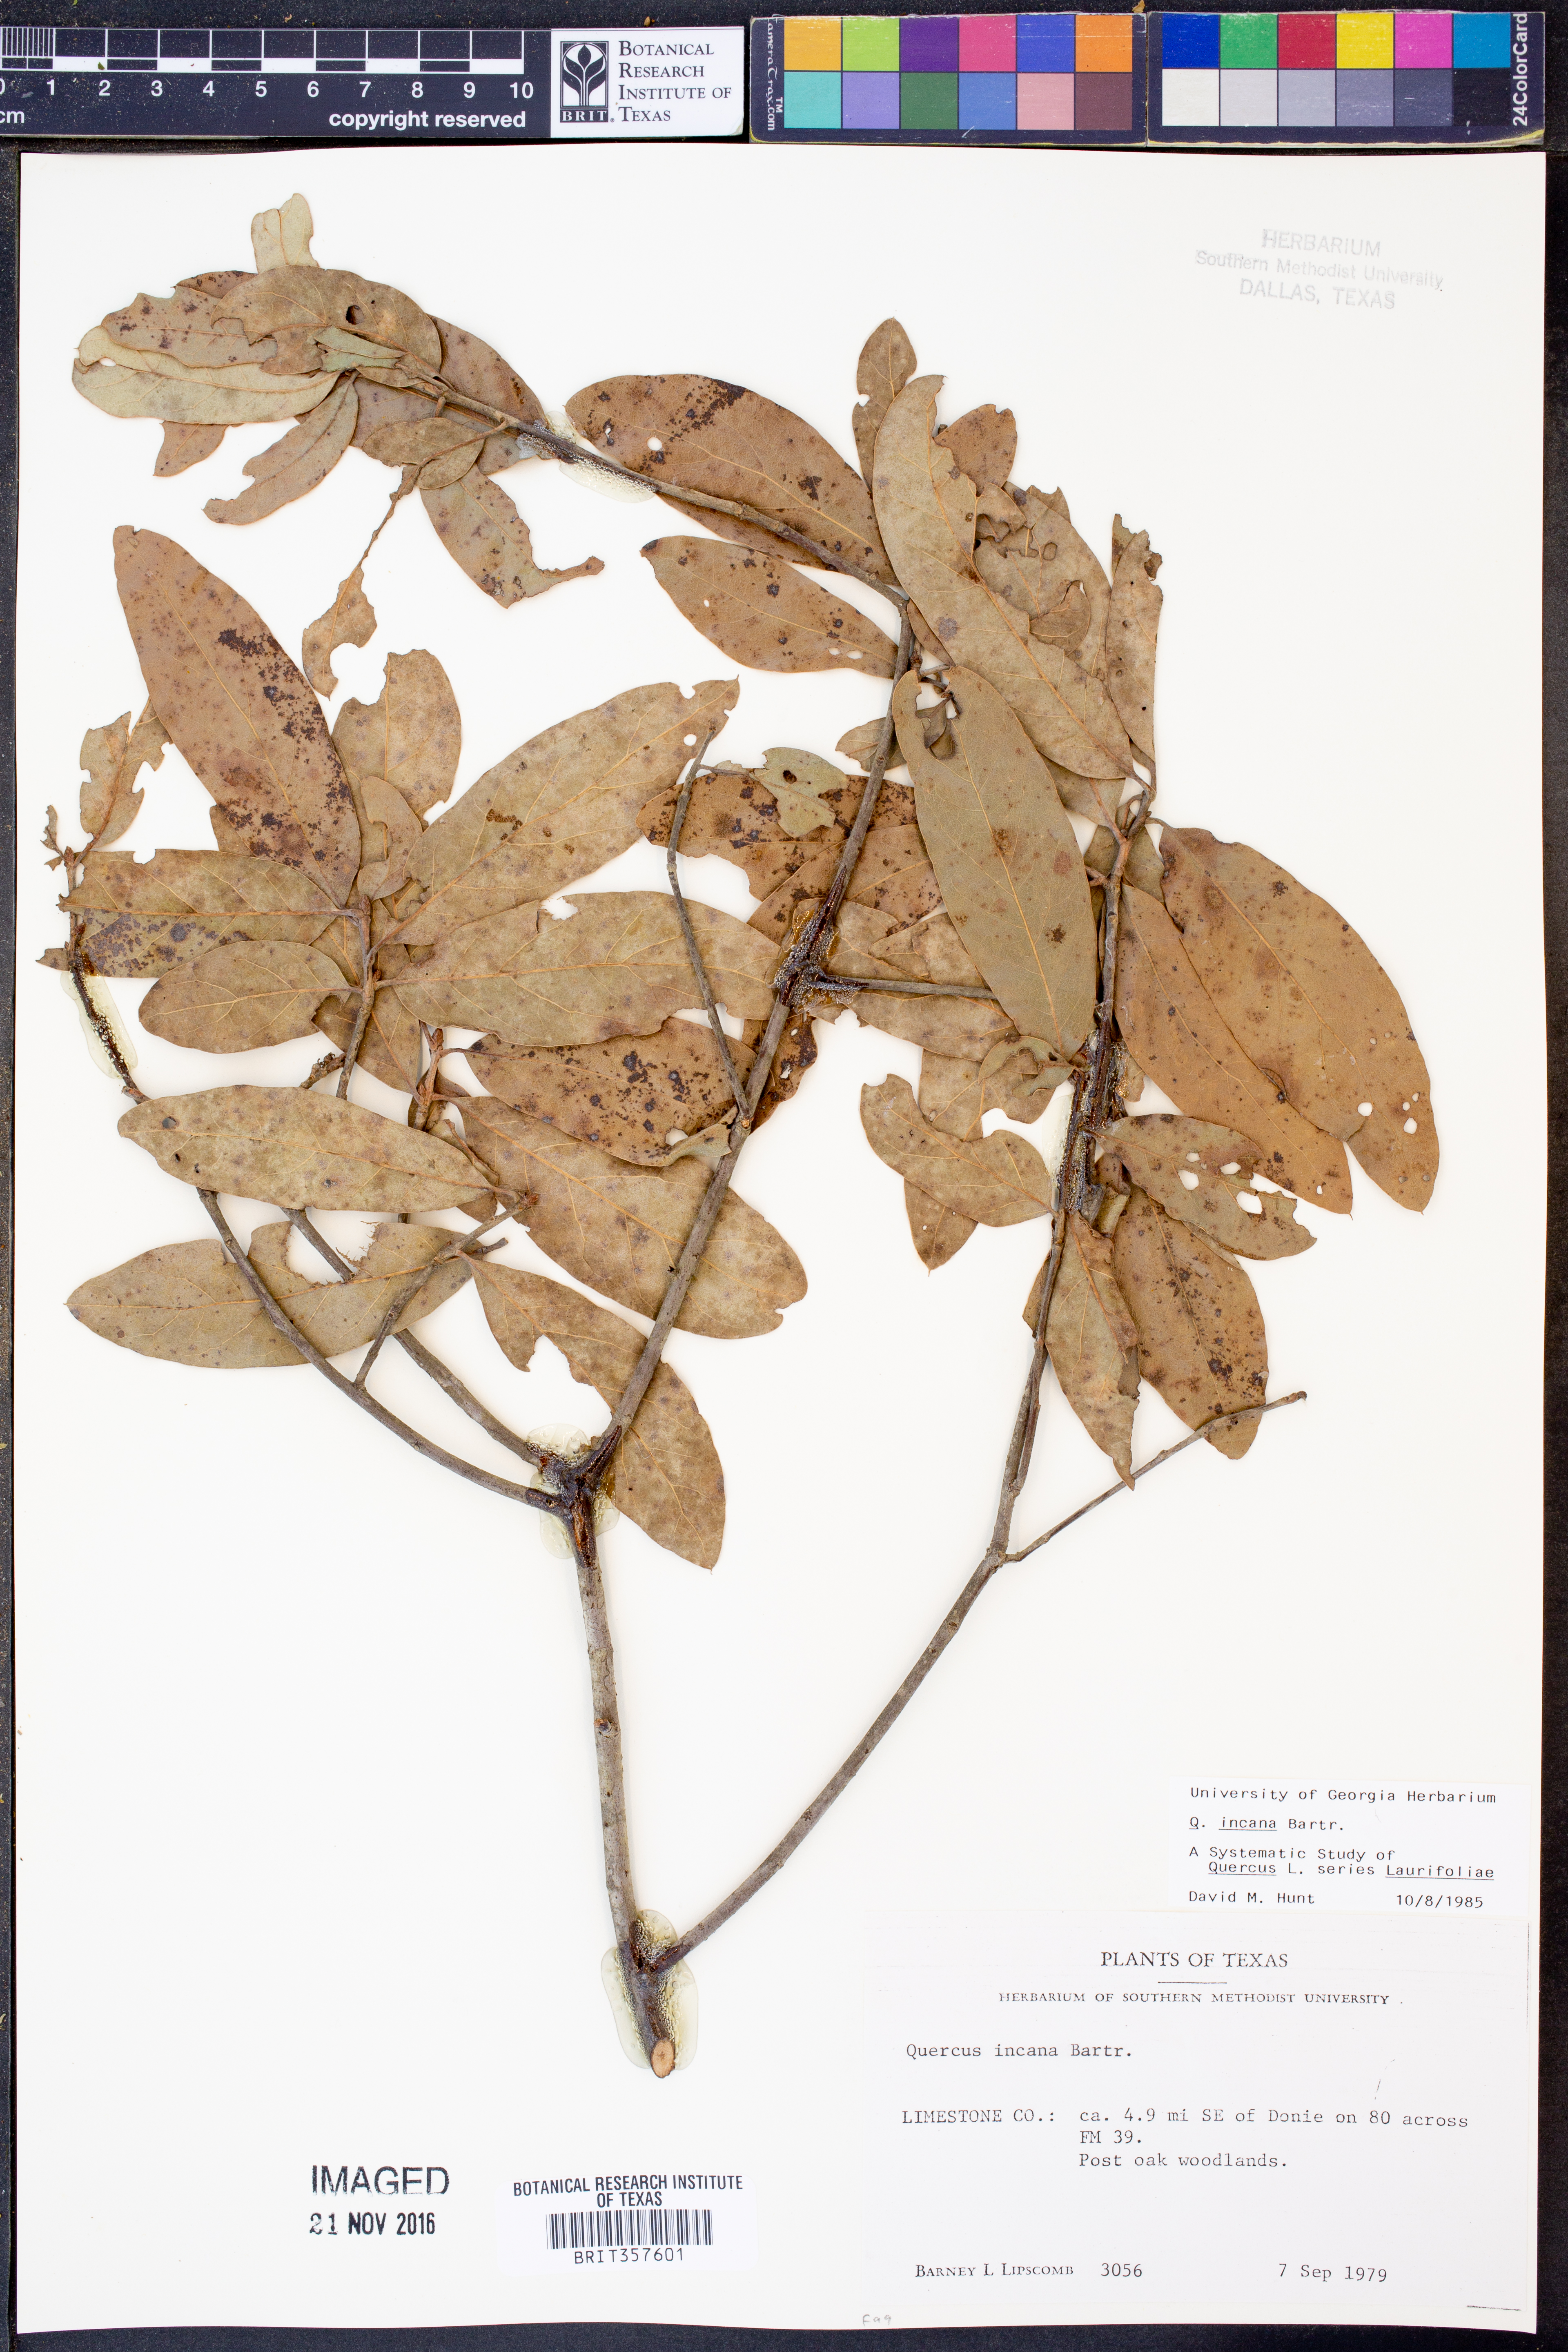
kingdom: Plantae
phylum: Tracheophyta
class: Magnoliopsida
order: Fagales
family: Fagaceae
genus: Quercus
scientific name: Quercus incana
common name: Bluejack oak
